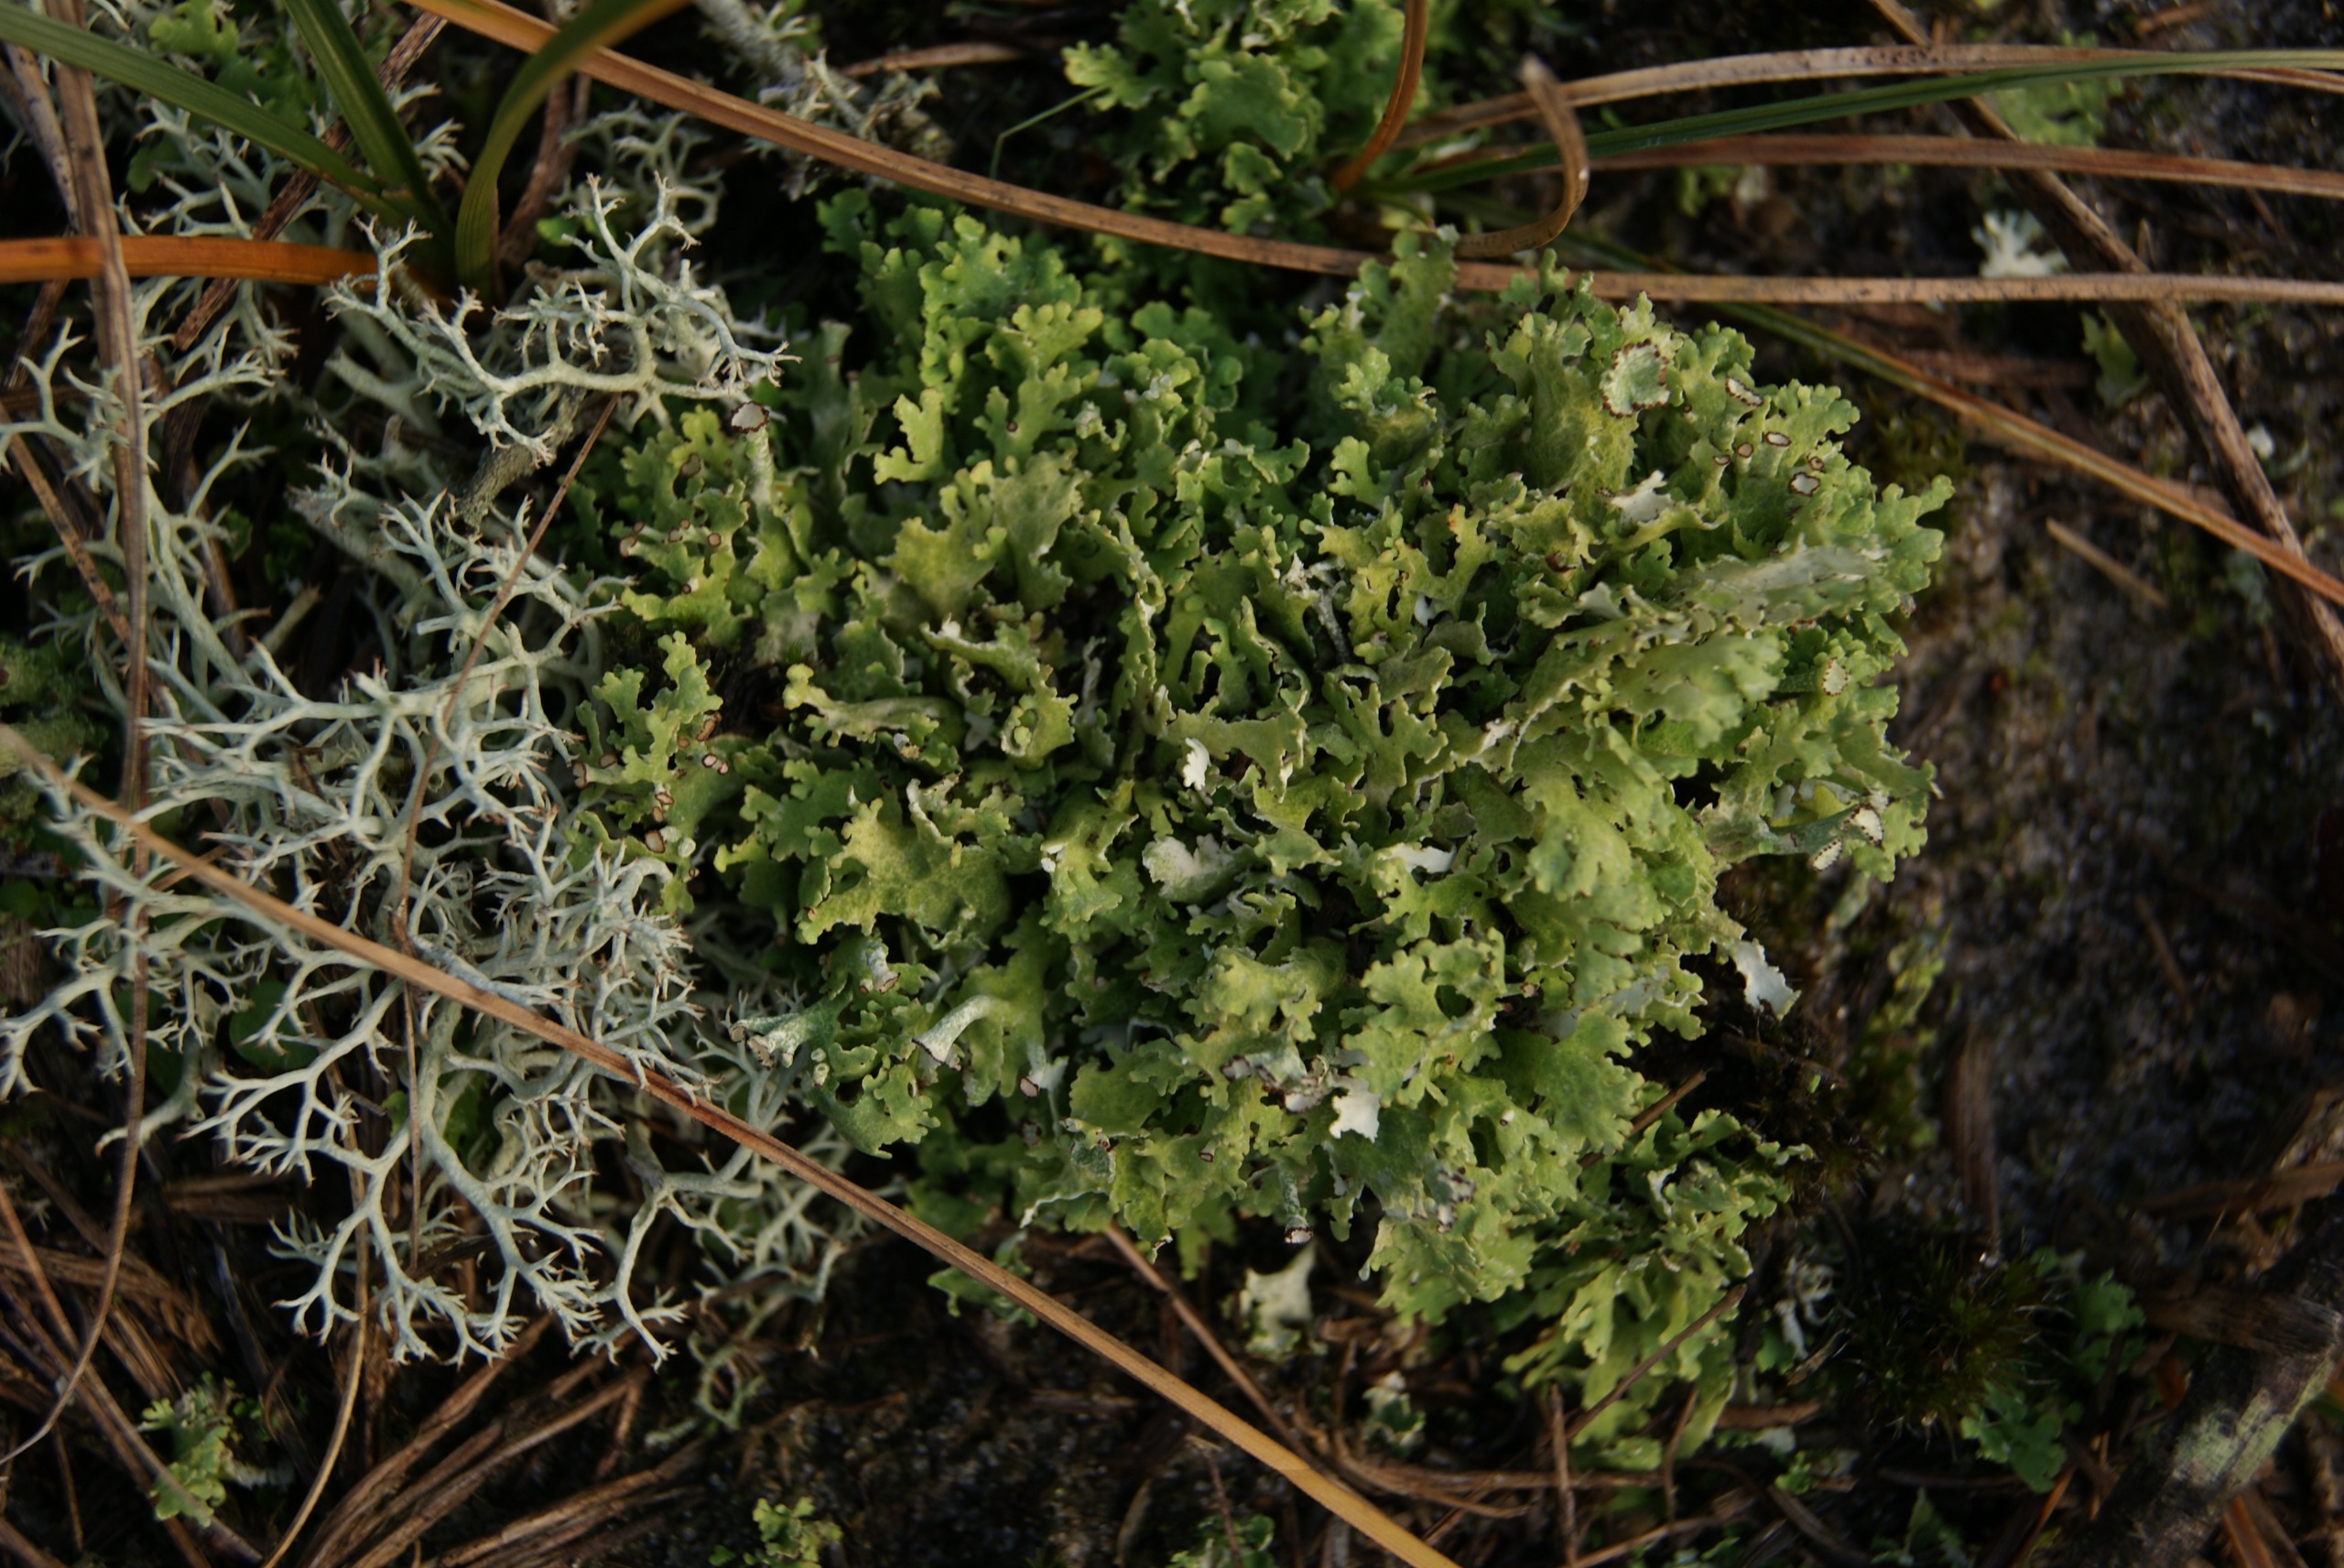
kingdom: Fungi
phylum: Ascomycota
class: Lecanoromycetes
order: Lecanorales
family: Cladoniaceae
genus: Cladonia
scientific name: Cladonia foliacea
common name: Fliget bægerlav
